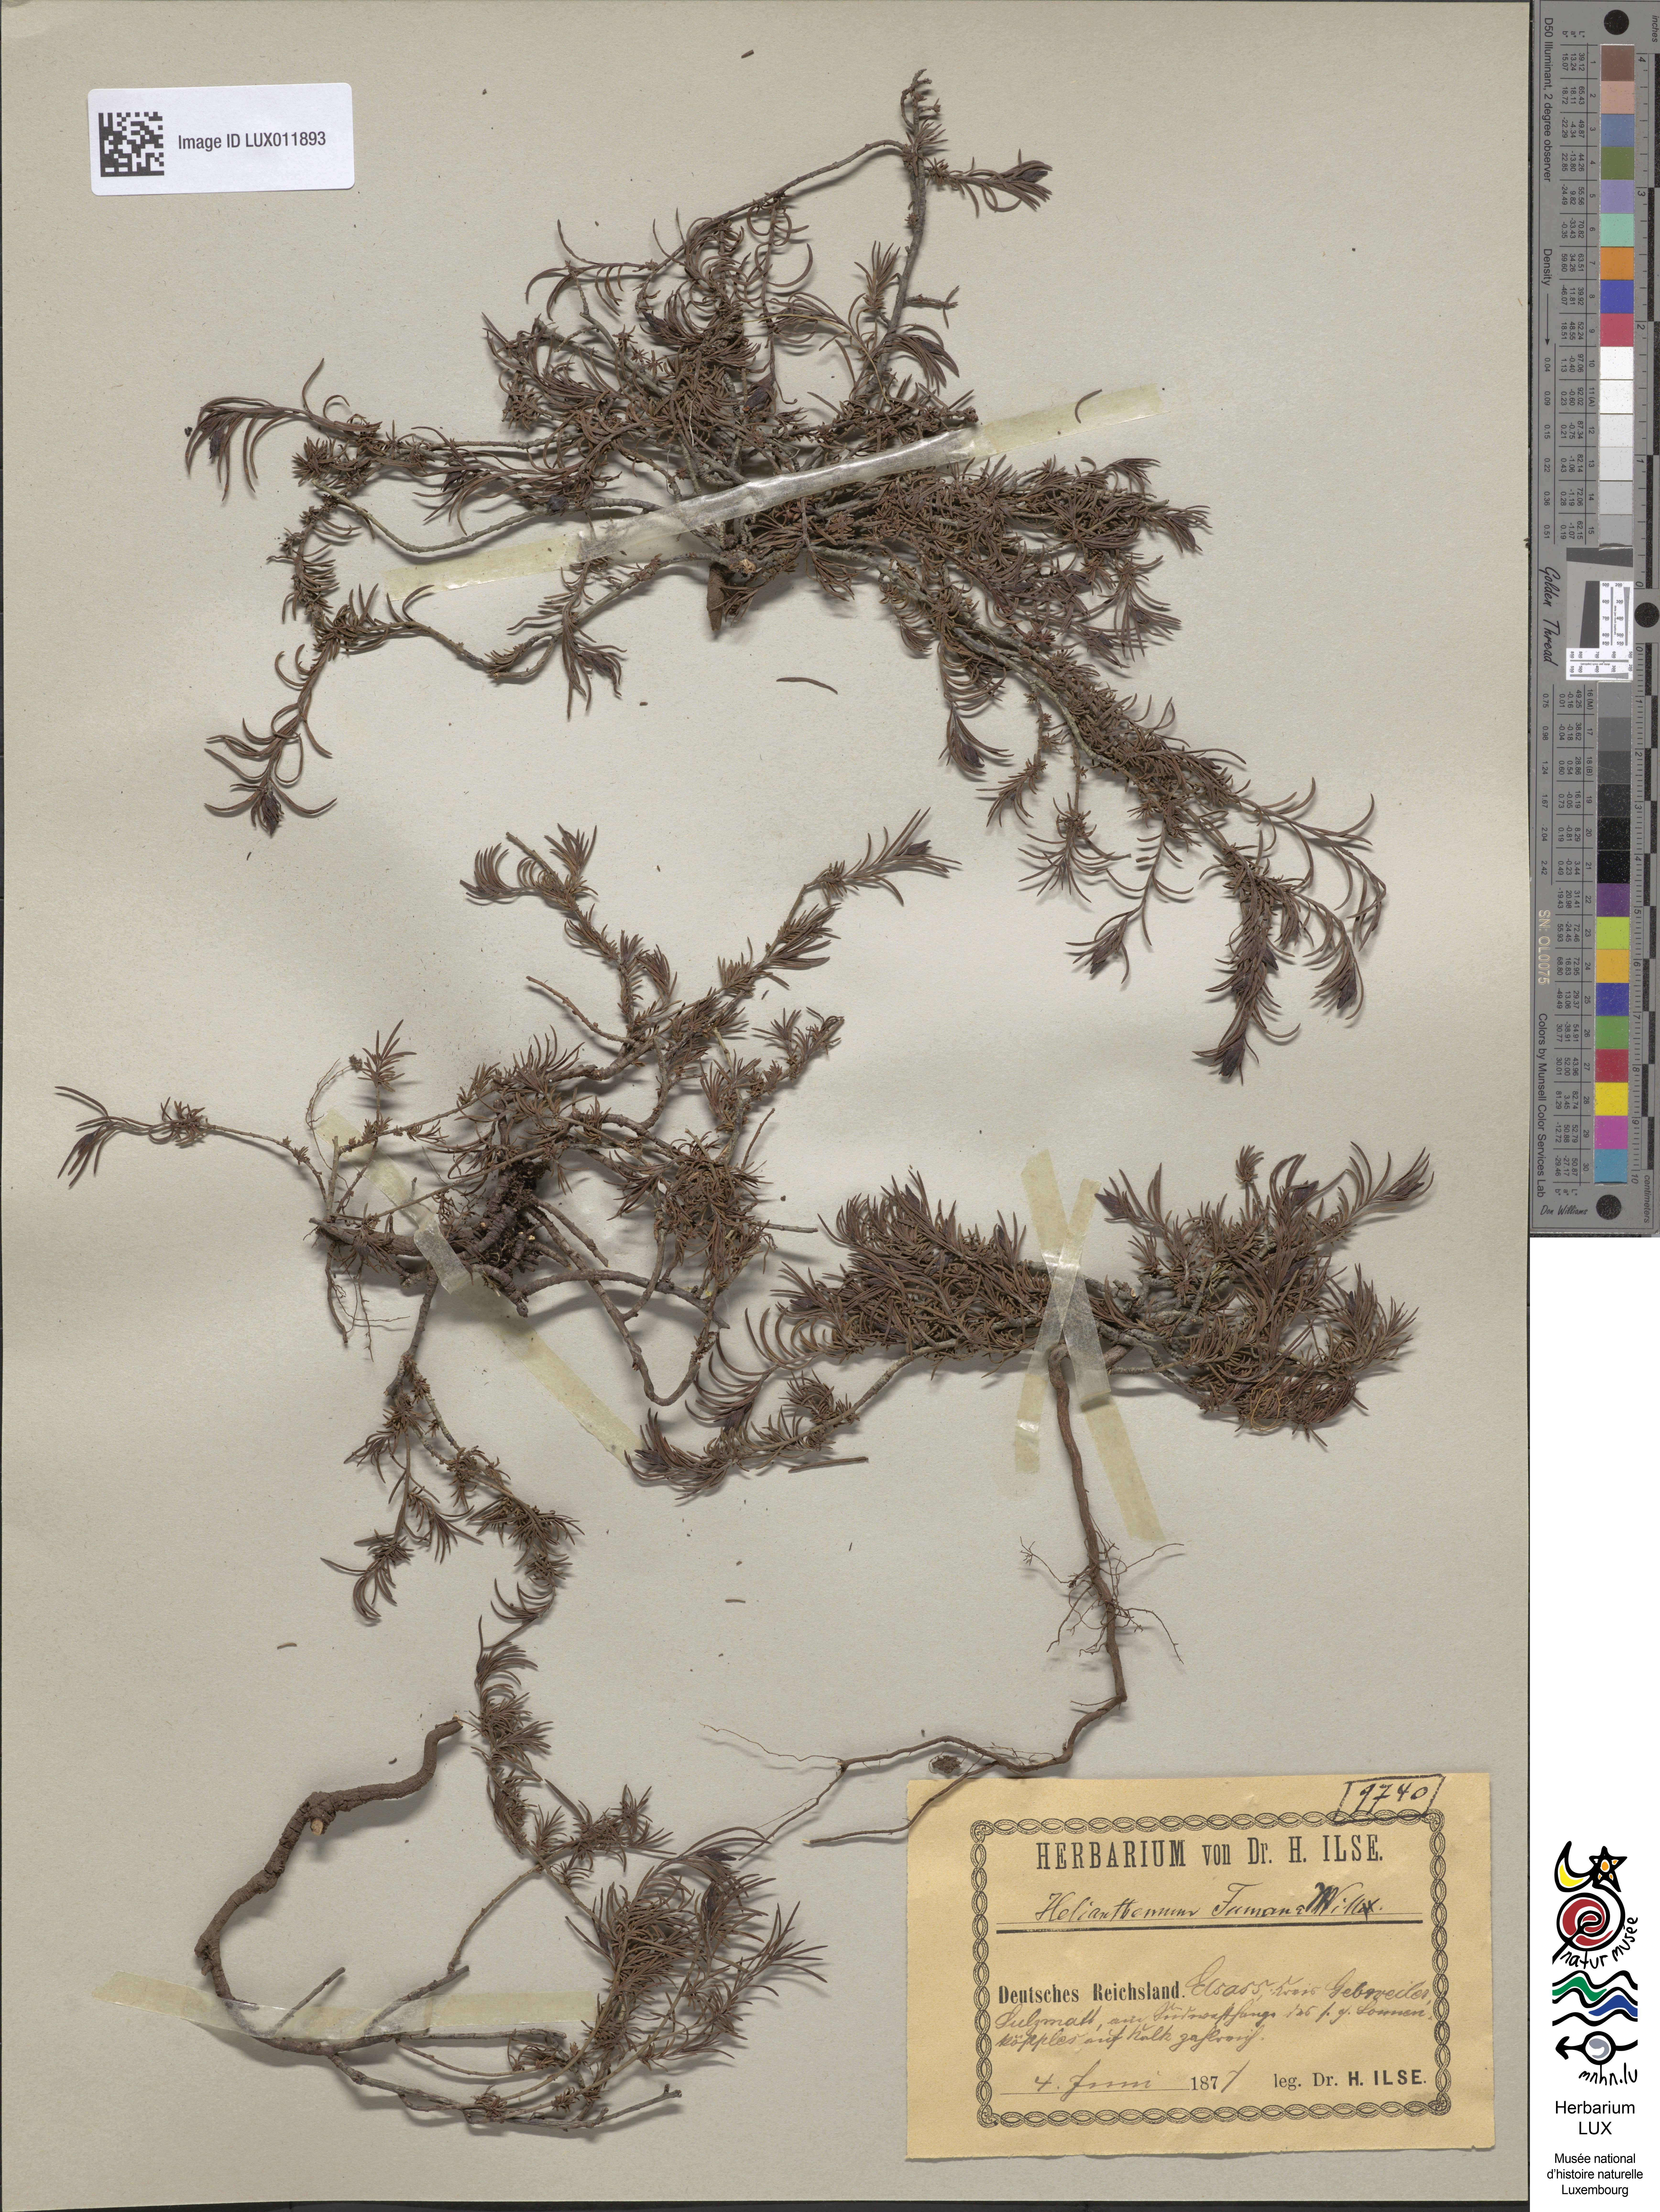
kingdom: Plantae
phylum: Tracheophyta
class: Magnoliopsida
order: Malvales
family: Cistaceae
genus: Fumana
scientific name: Fumana procumbens
